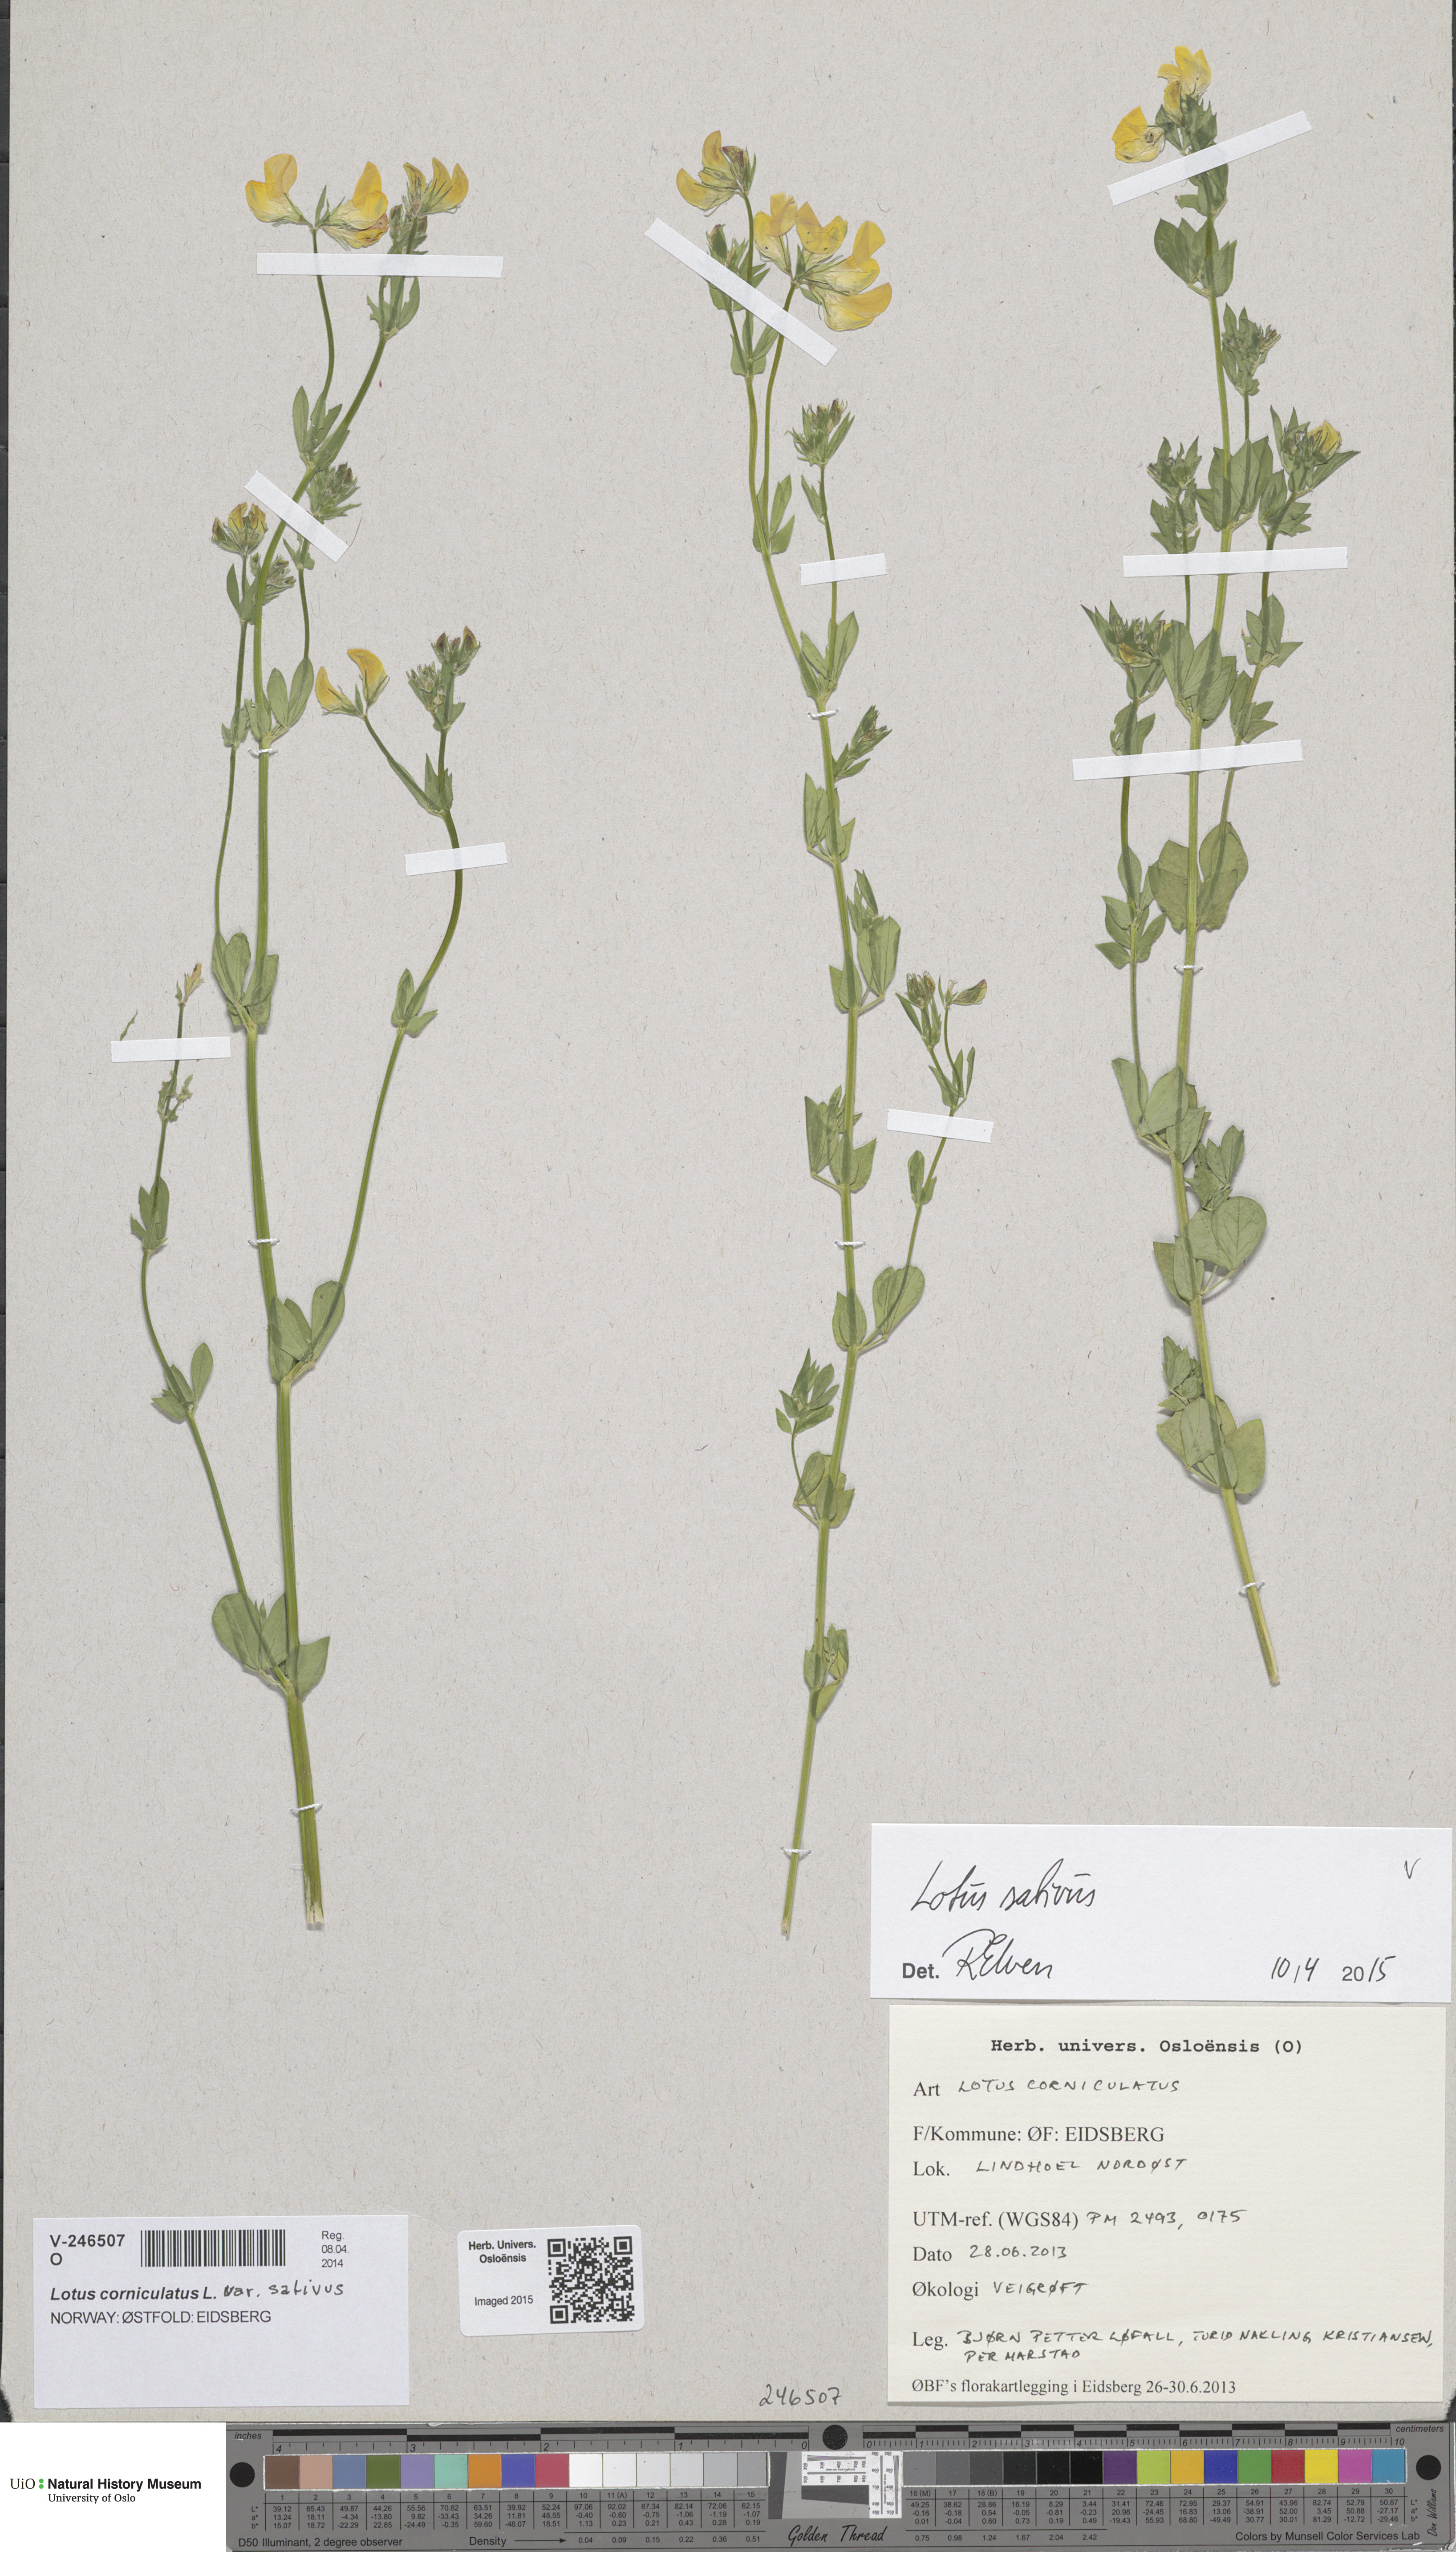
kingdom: Plantae
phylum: Tracheophyta
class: Magnoliopsida
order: Fabales
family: Fabaceae
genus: Lotus
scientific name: Lotus corniculatus
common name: Common bird's-foot-trefoil
